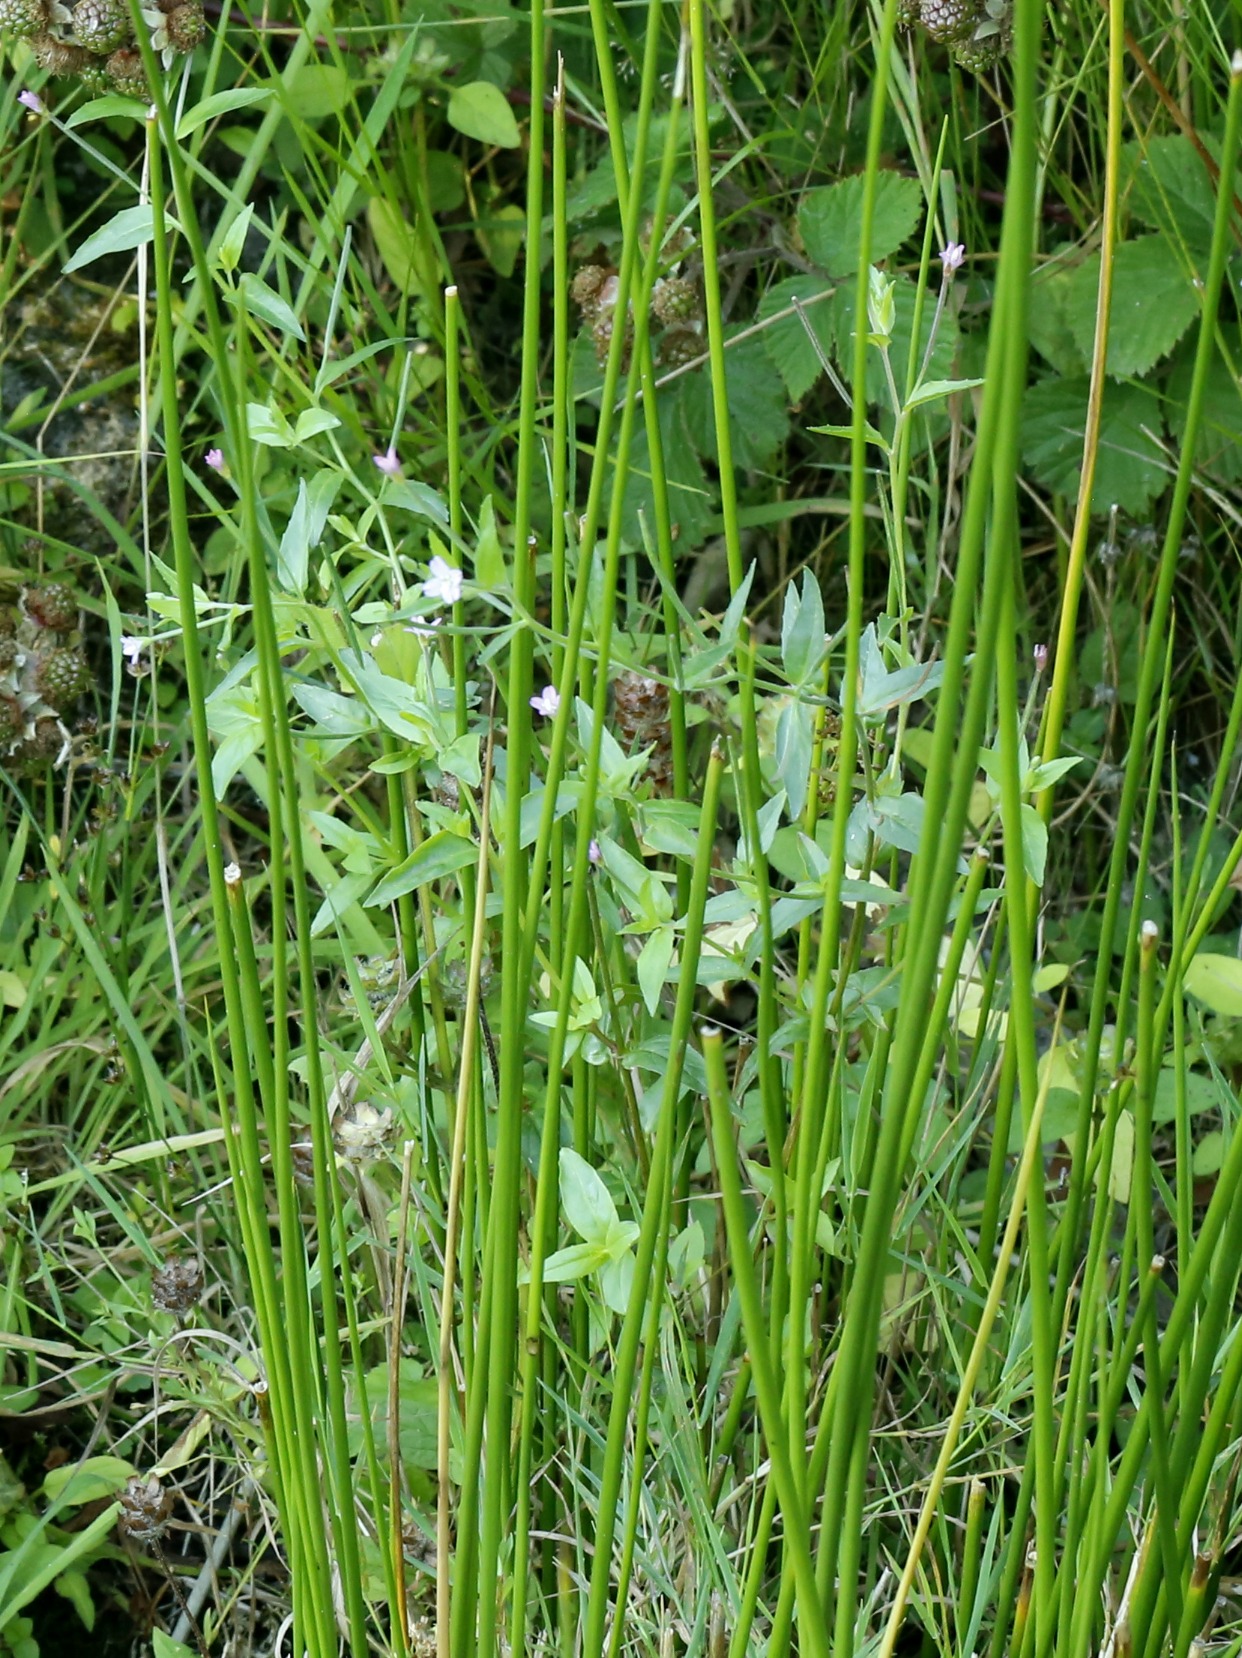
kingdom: Plantae
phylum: Tracheophyta
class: Magnoliopsida
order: Myrtales
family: Onagraceae
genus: Epilobium
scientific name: Epilobium
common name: Dueurtslægten
